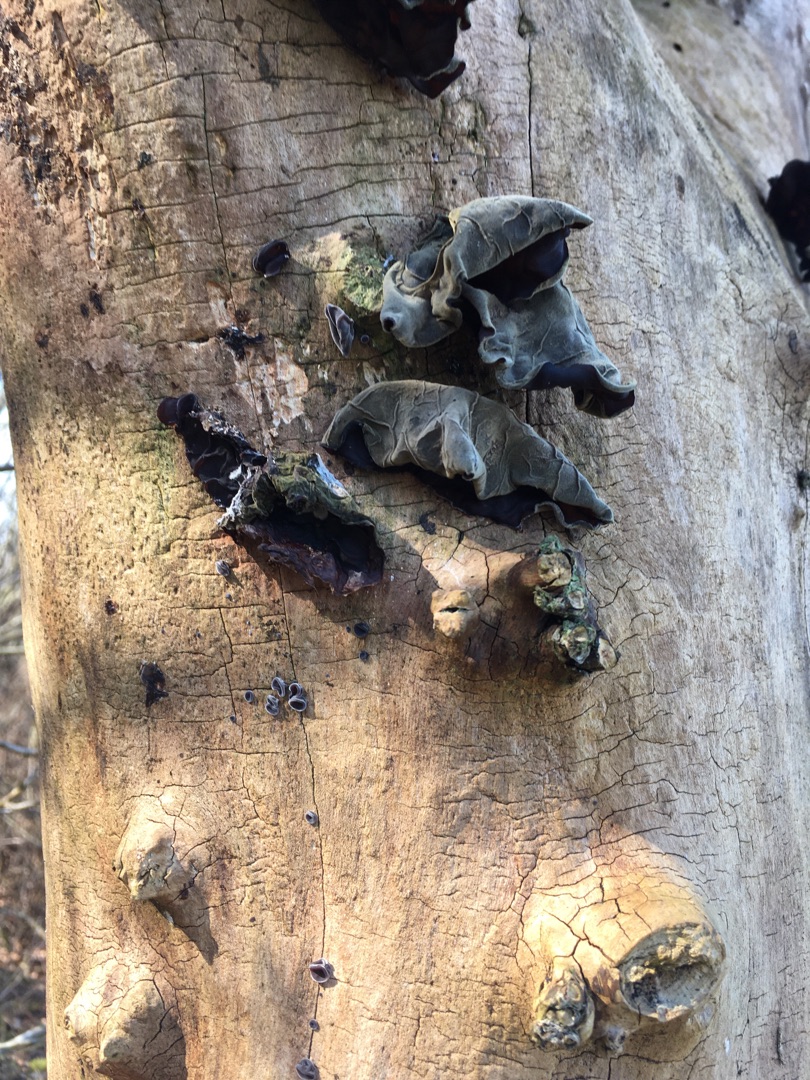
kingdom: Fungi
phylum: Basidiomycota
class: Agaricomycetes
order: Auriculariales
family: Auriculariaceae
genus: Auricularia
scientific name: Auricularia auricula-judae
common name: Almindelig judasøre
